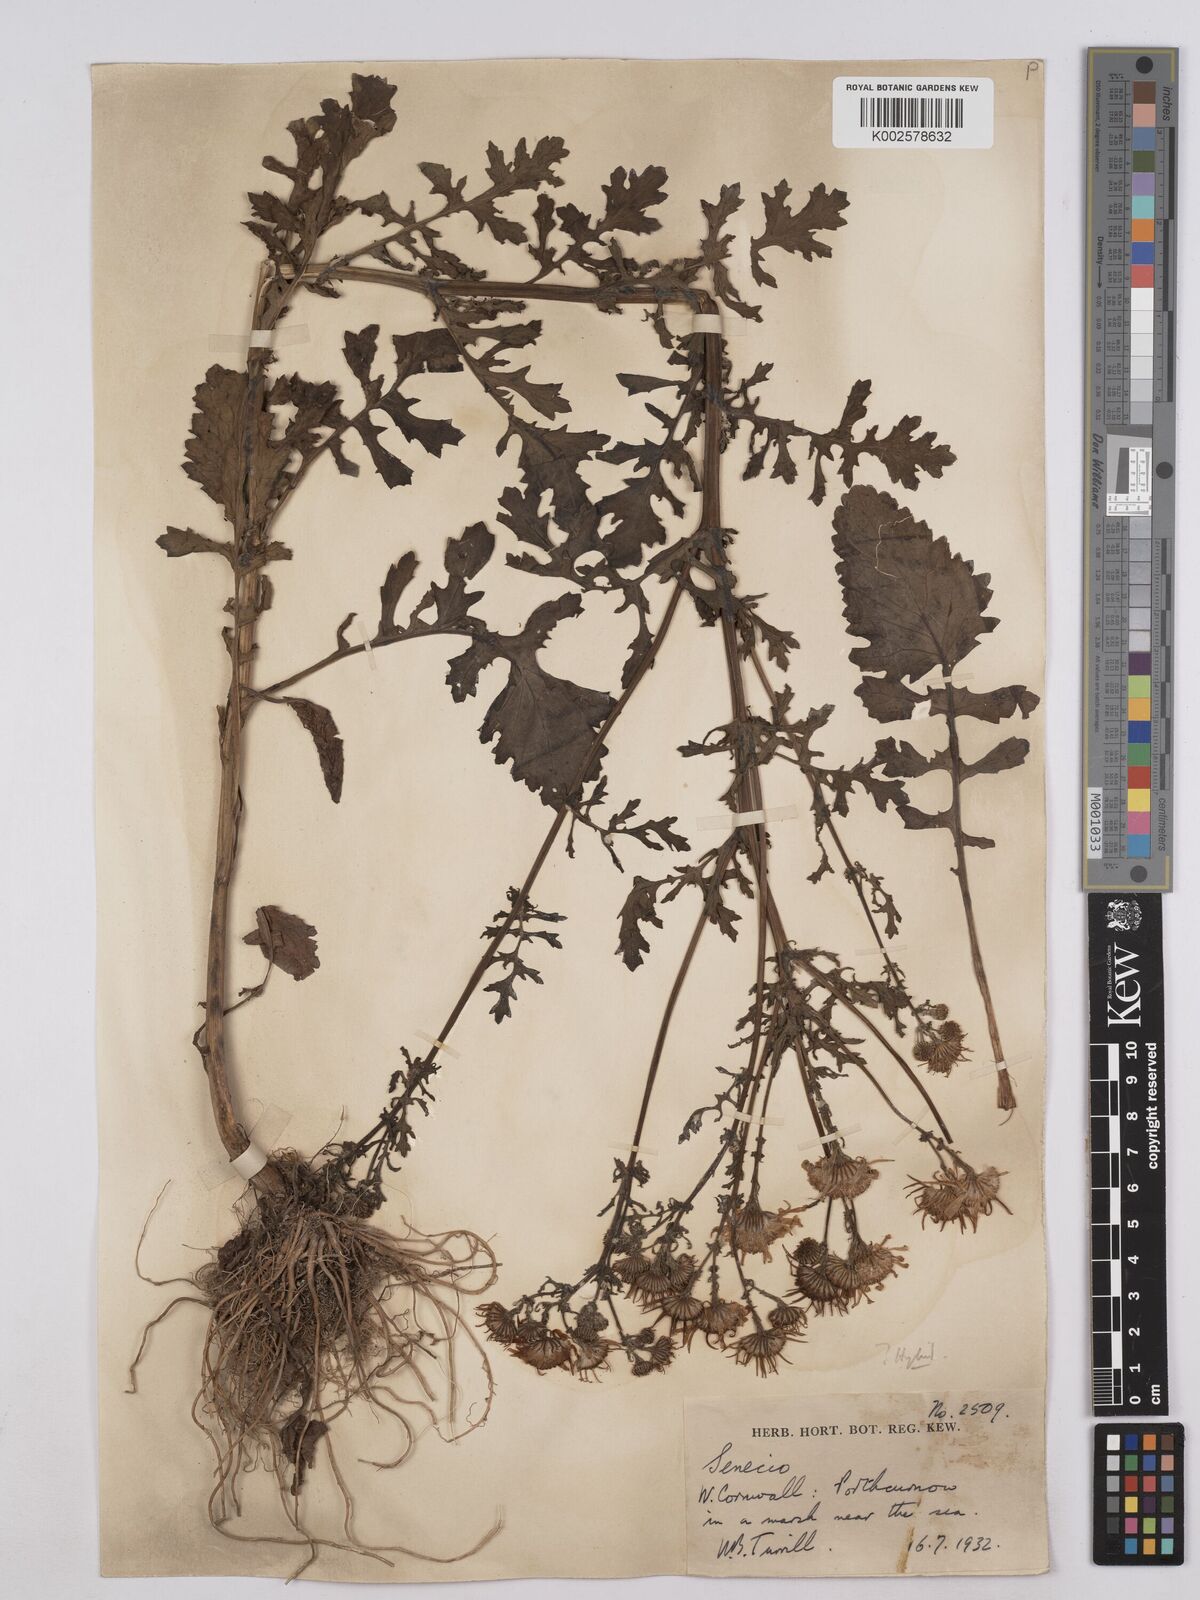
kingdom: Plantae
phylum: Tracheophyta
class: Magnoliopsida
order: Asterales
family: Asteraceae
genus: Jacobaea
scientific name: Jacobaea aquatica
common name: Water ragwort
